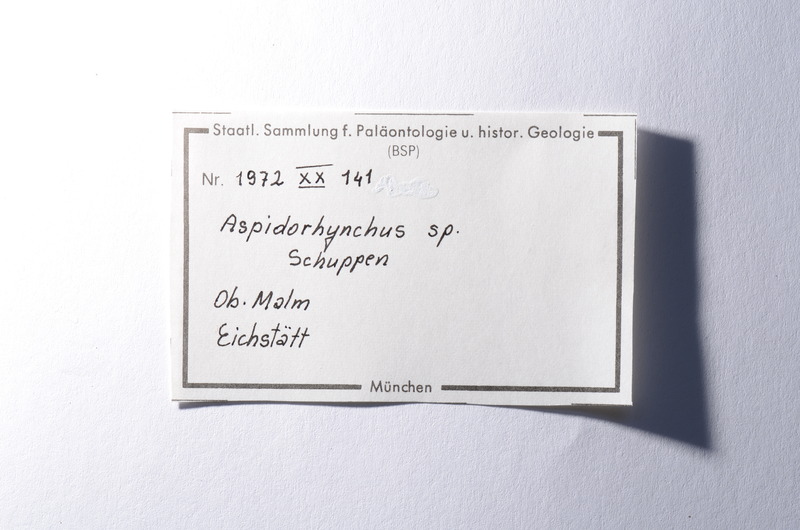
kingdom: Animalia
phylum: Chordata
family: Aspidorhynchidae
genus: Aspidorhynchus
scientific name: Aspidorhynchus
